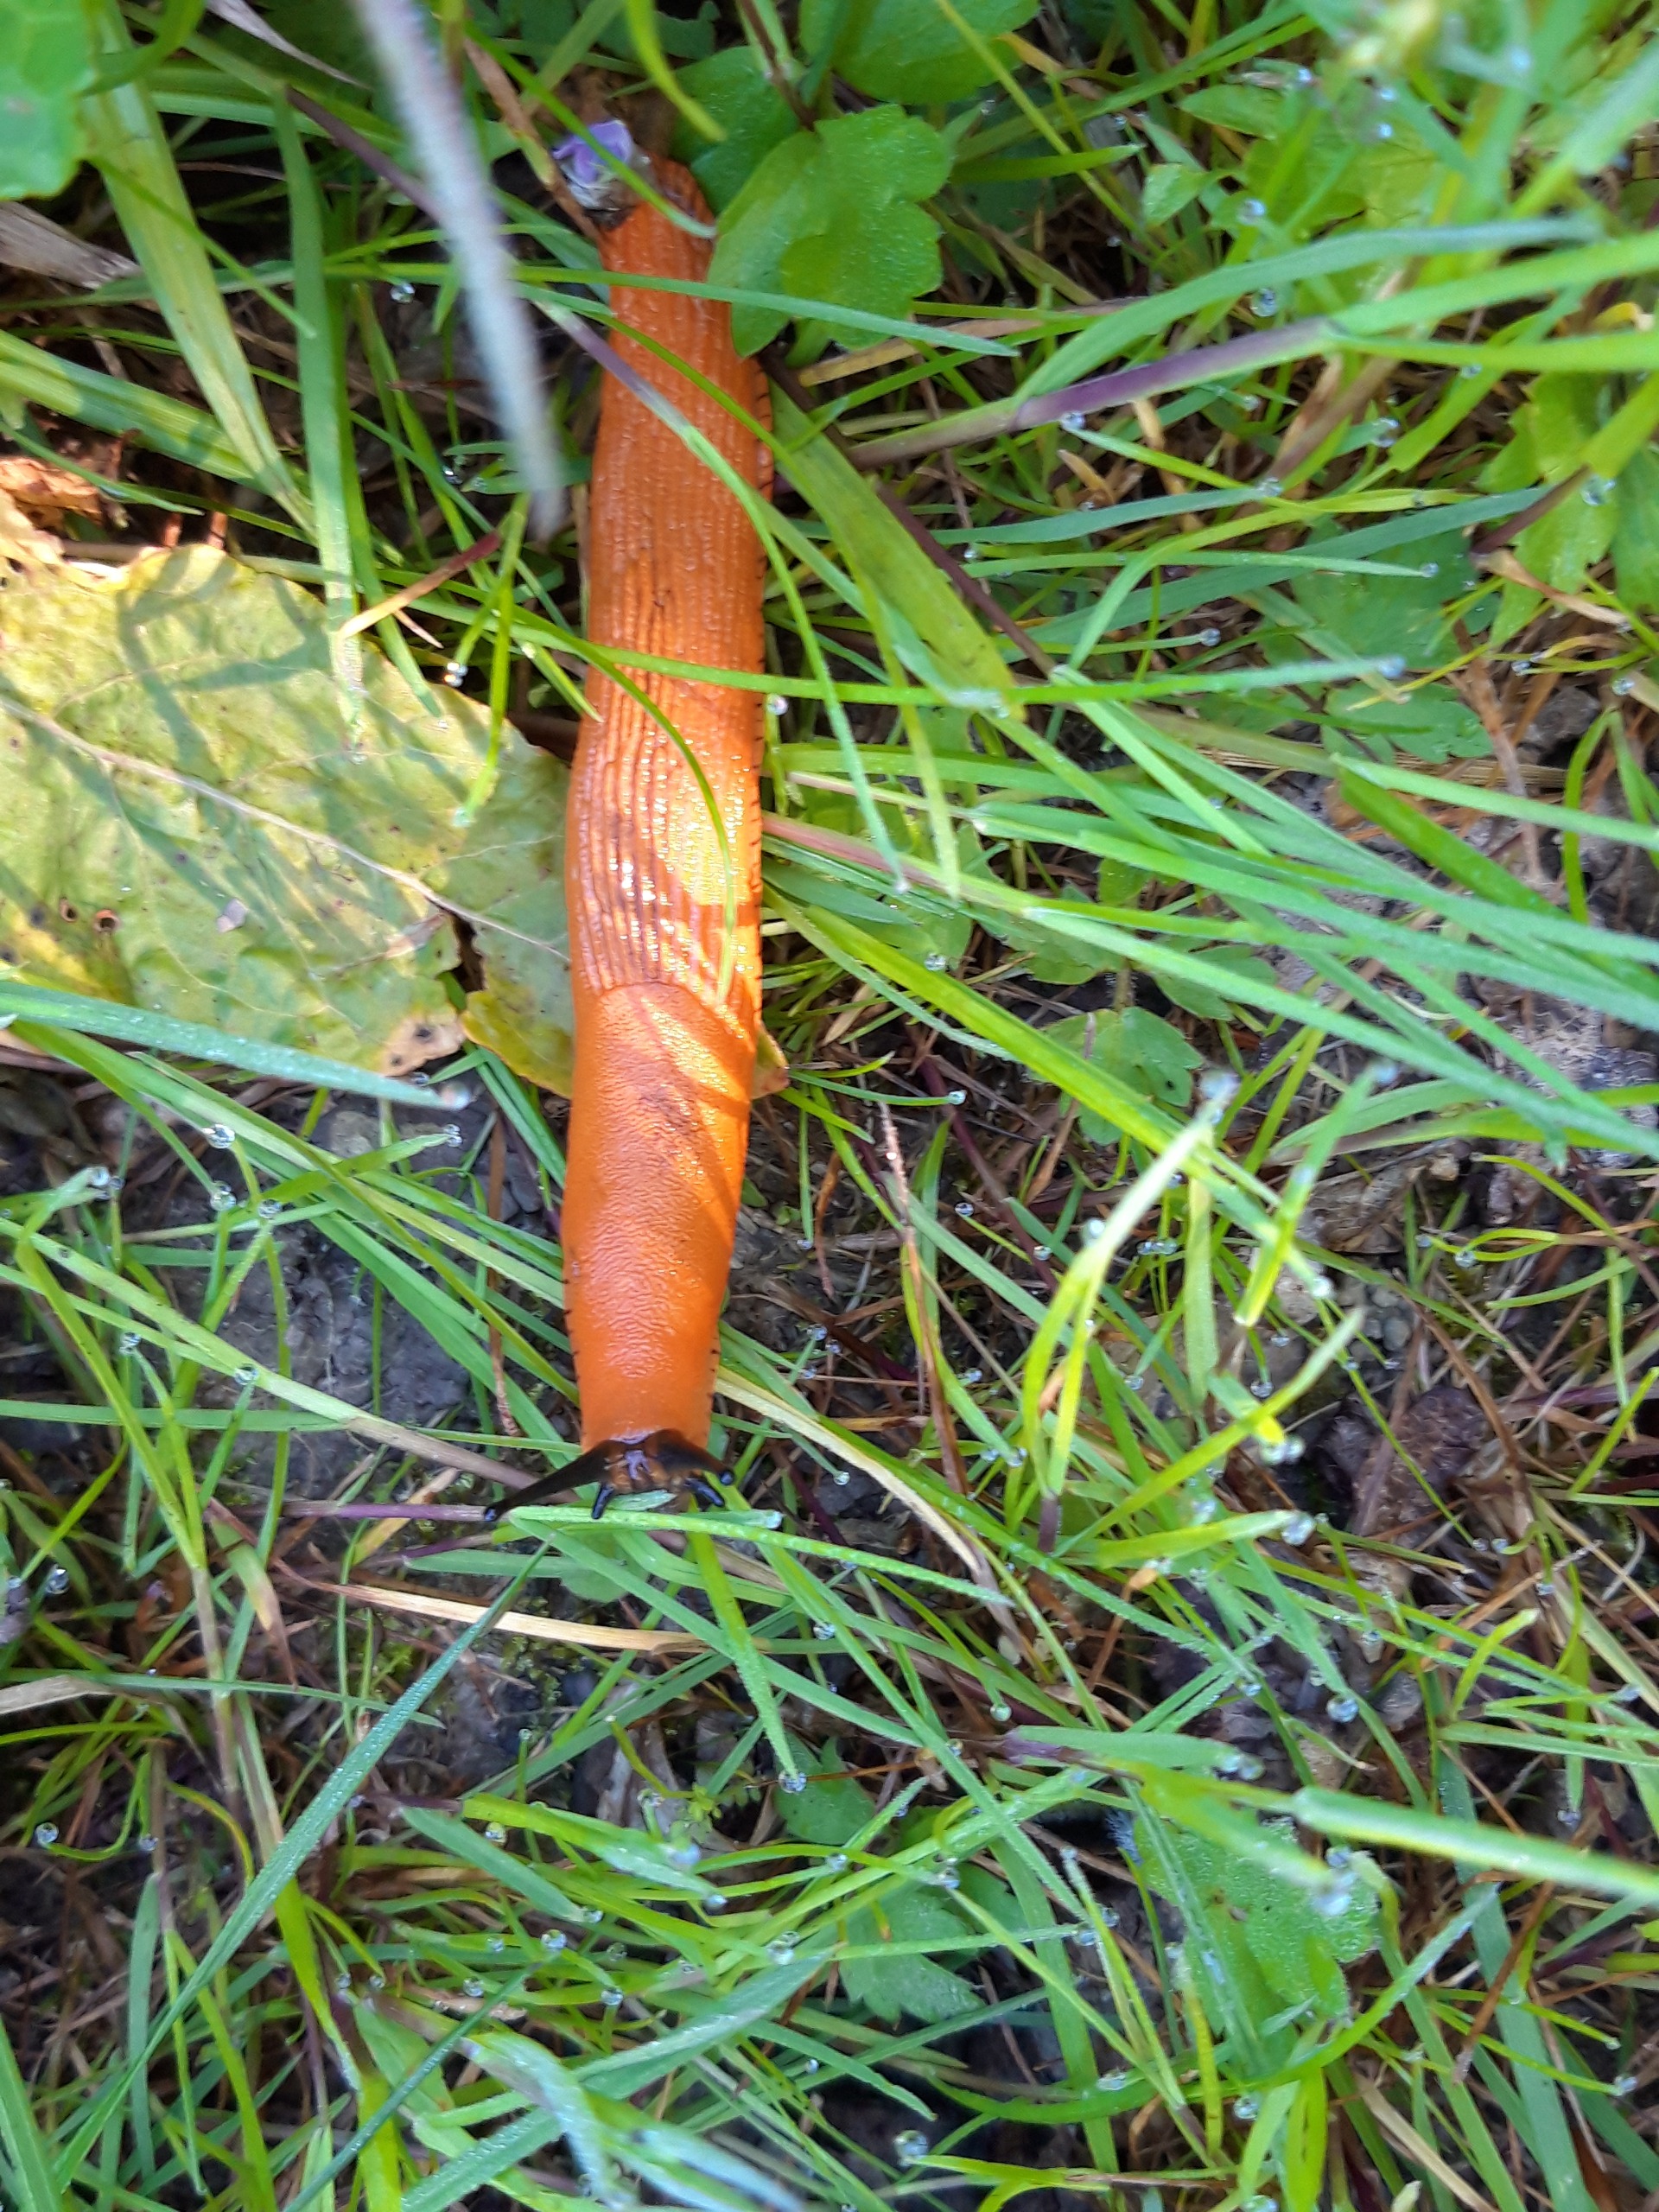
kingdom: Animalia
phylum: Mollusca
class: Gastropoda
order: Stylommatophora
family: Arionidae
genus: Arion
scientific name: Arion rufus
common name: Rød skovsnegl
